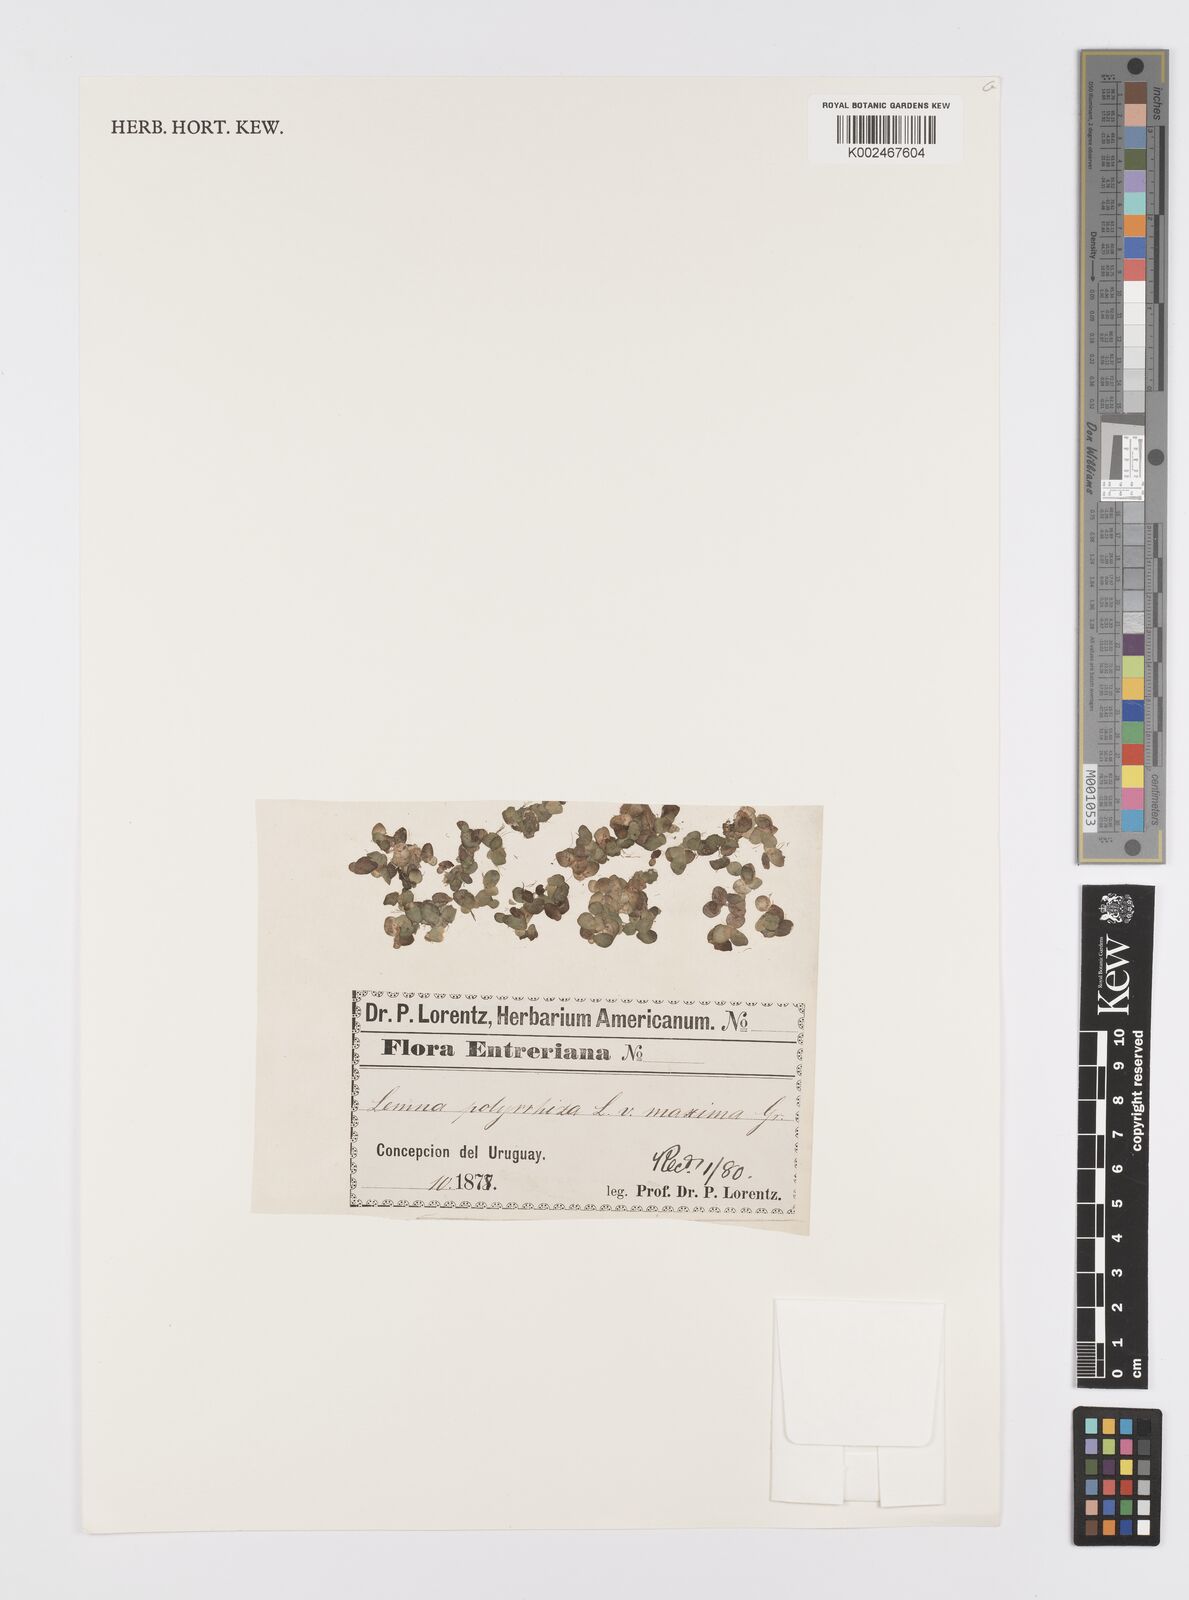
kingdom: Plantae
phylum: Tracheophyta
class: Liliopsida
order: Alismatales
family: Araceae
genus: Spirodela
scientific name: Spirodela polyrhiza
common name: Great duckweed
